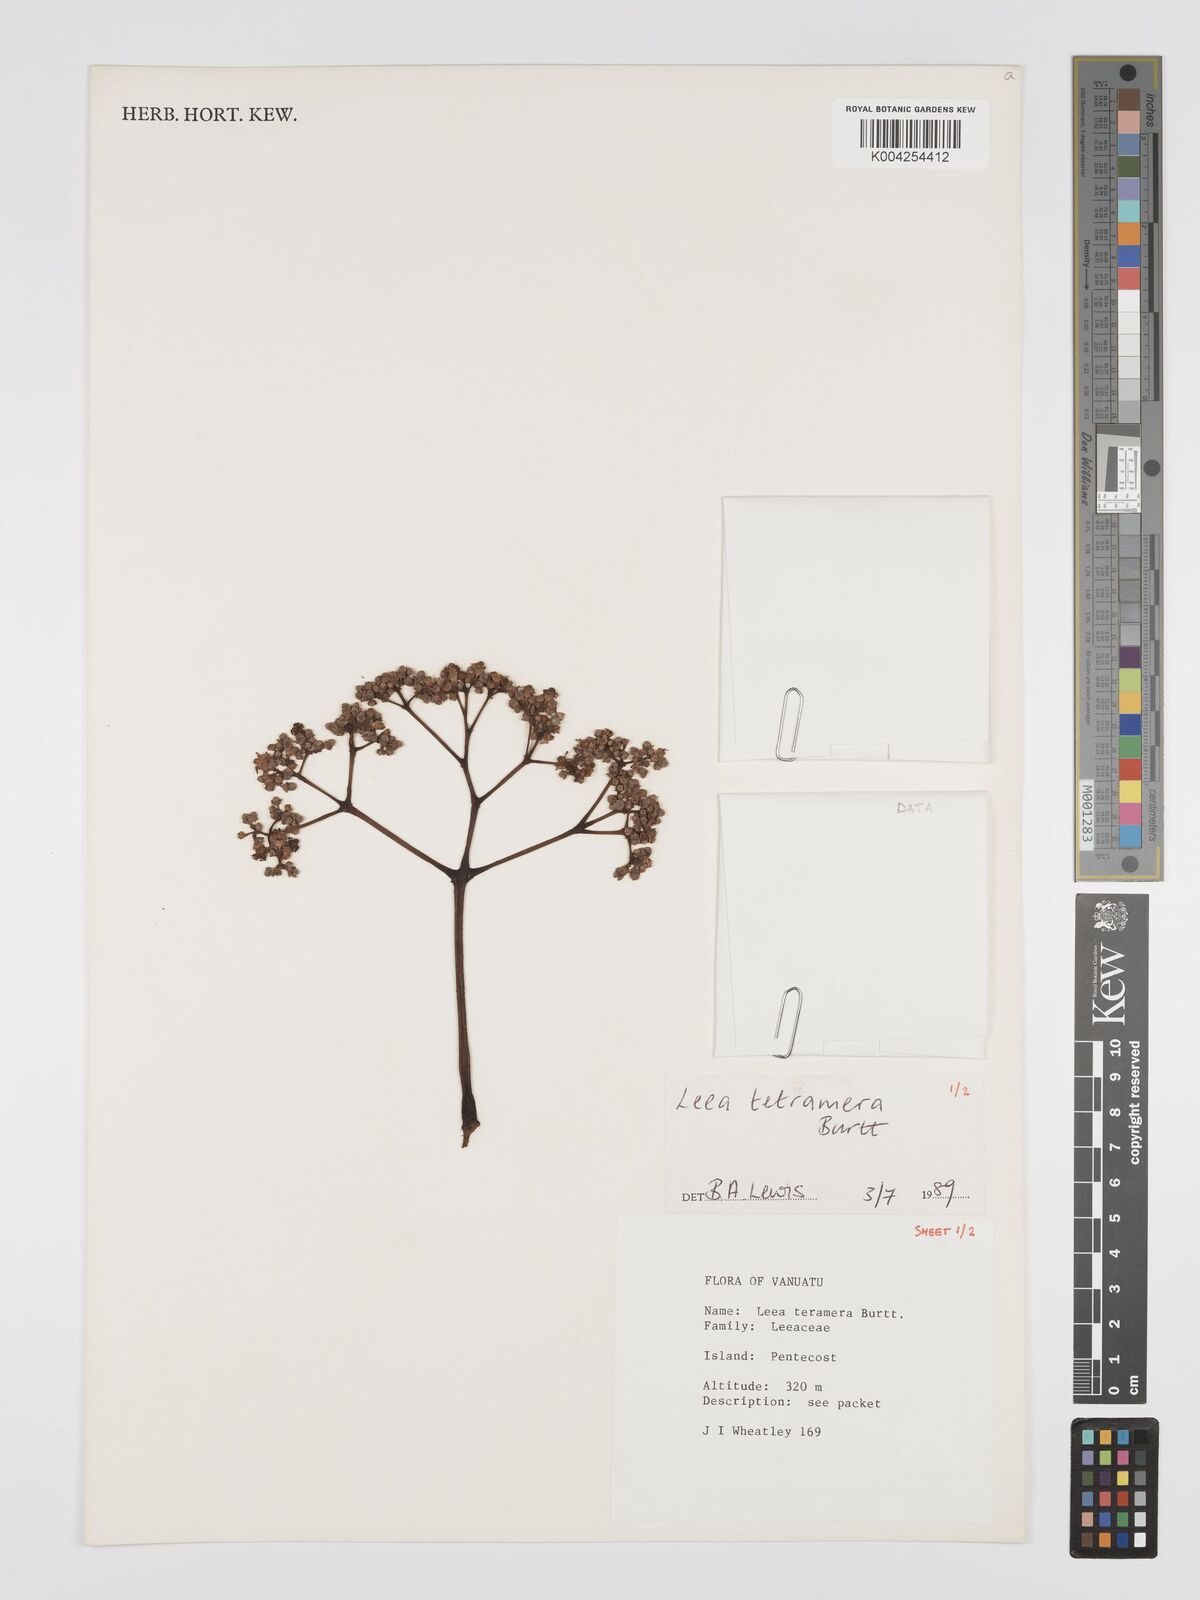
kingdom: Plantae
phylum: Tracheophyta
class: Magnoliopsida
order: Vitales
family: Vitaceae
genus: Leea
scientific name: Leea tetramera
